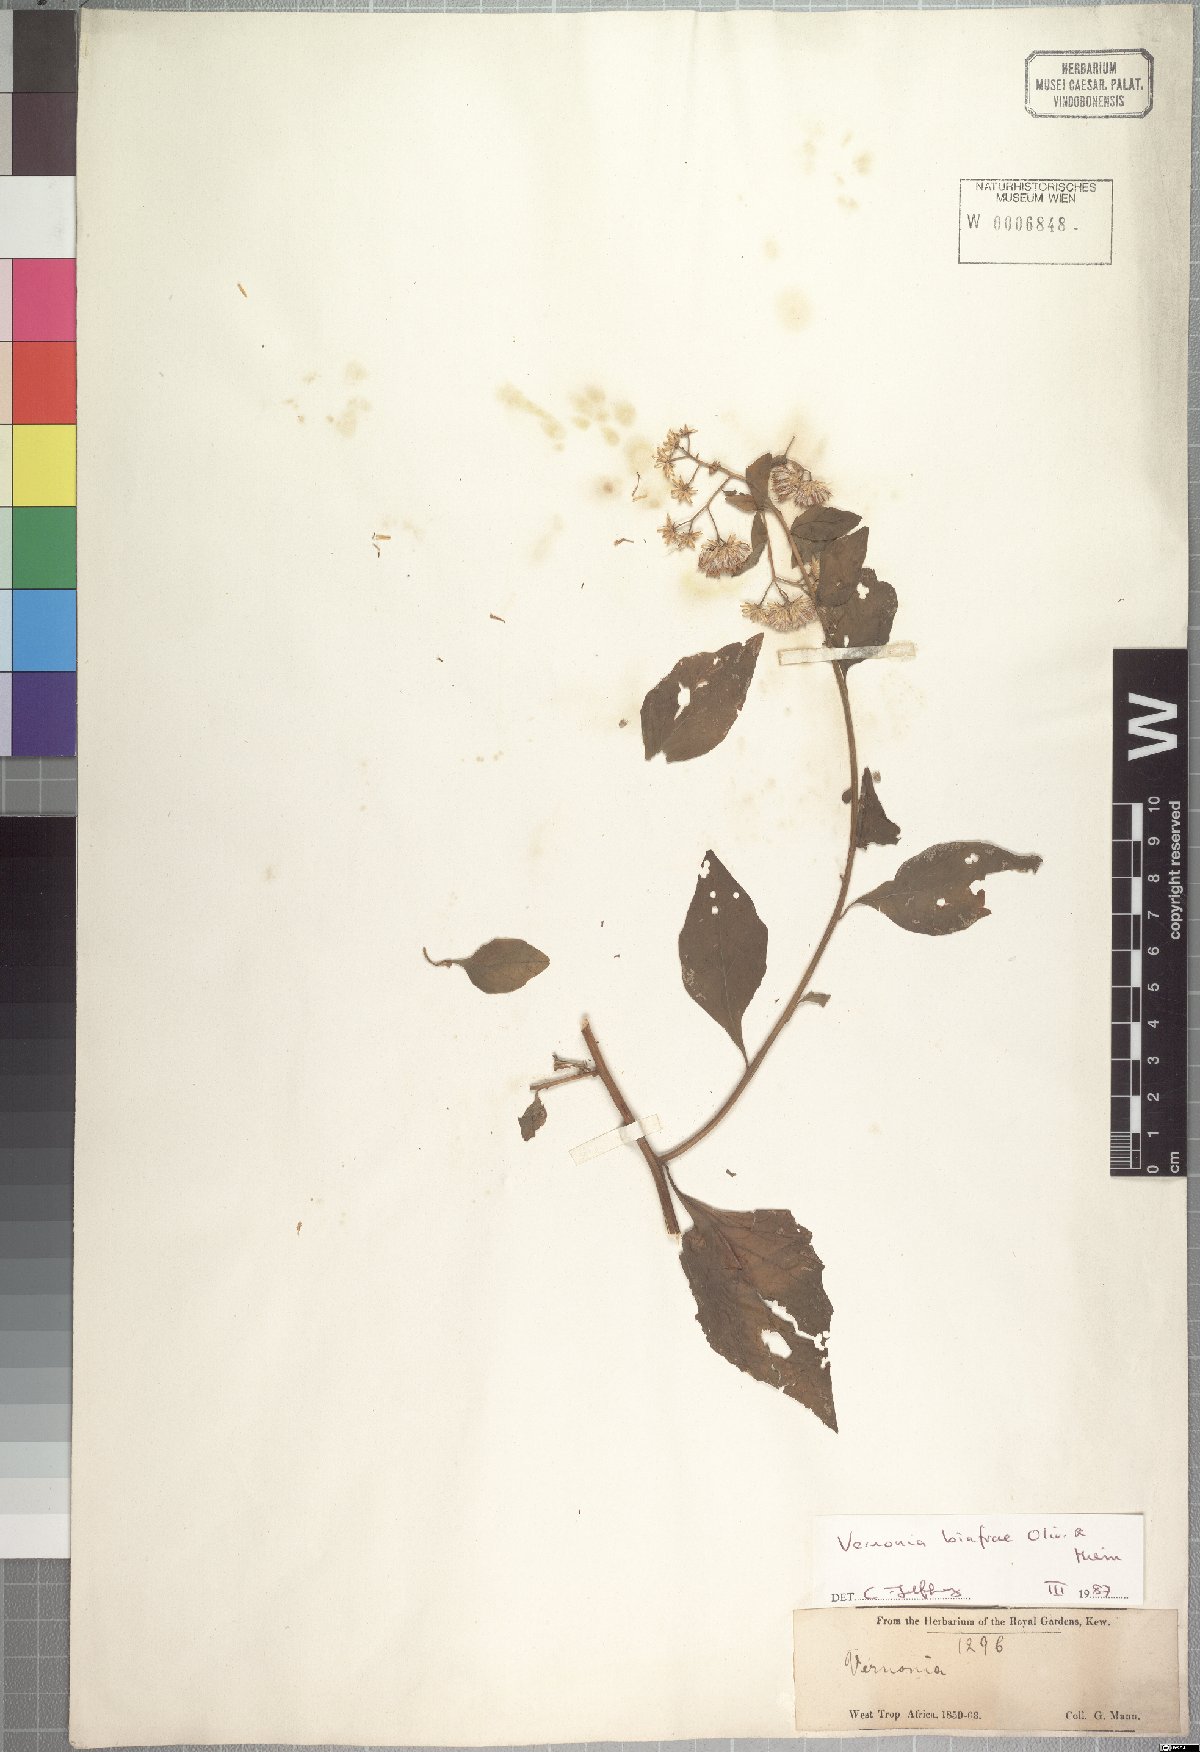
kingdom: Plantae
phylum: Tracheophyta
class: Magnoliopsida
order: Asterales
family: Asteraceae
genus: Distephanus
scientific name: Distephanus biafrae
